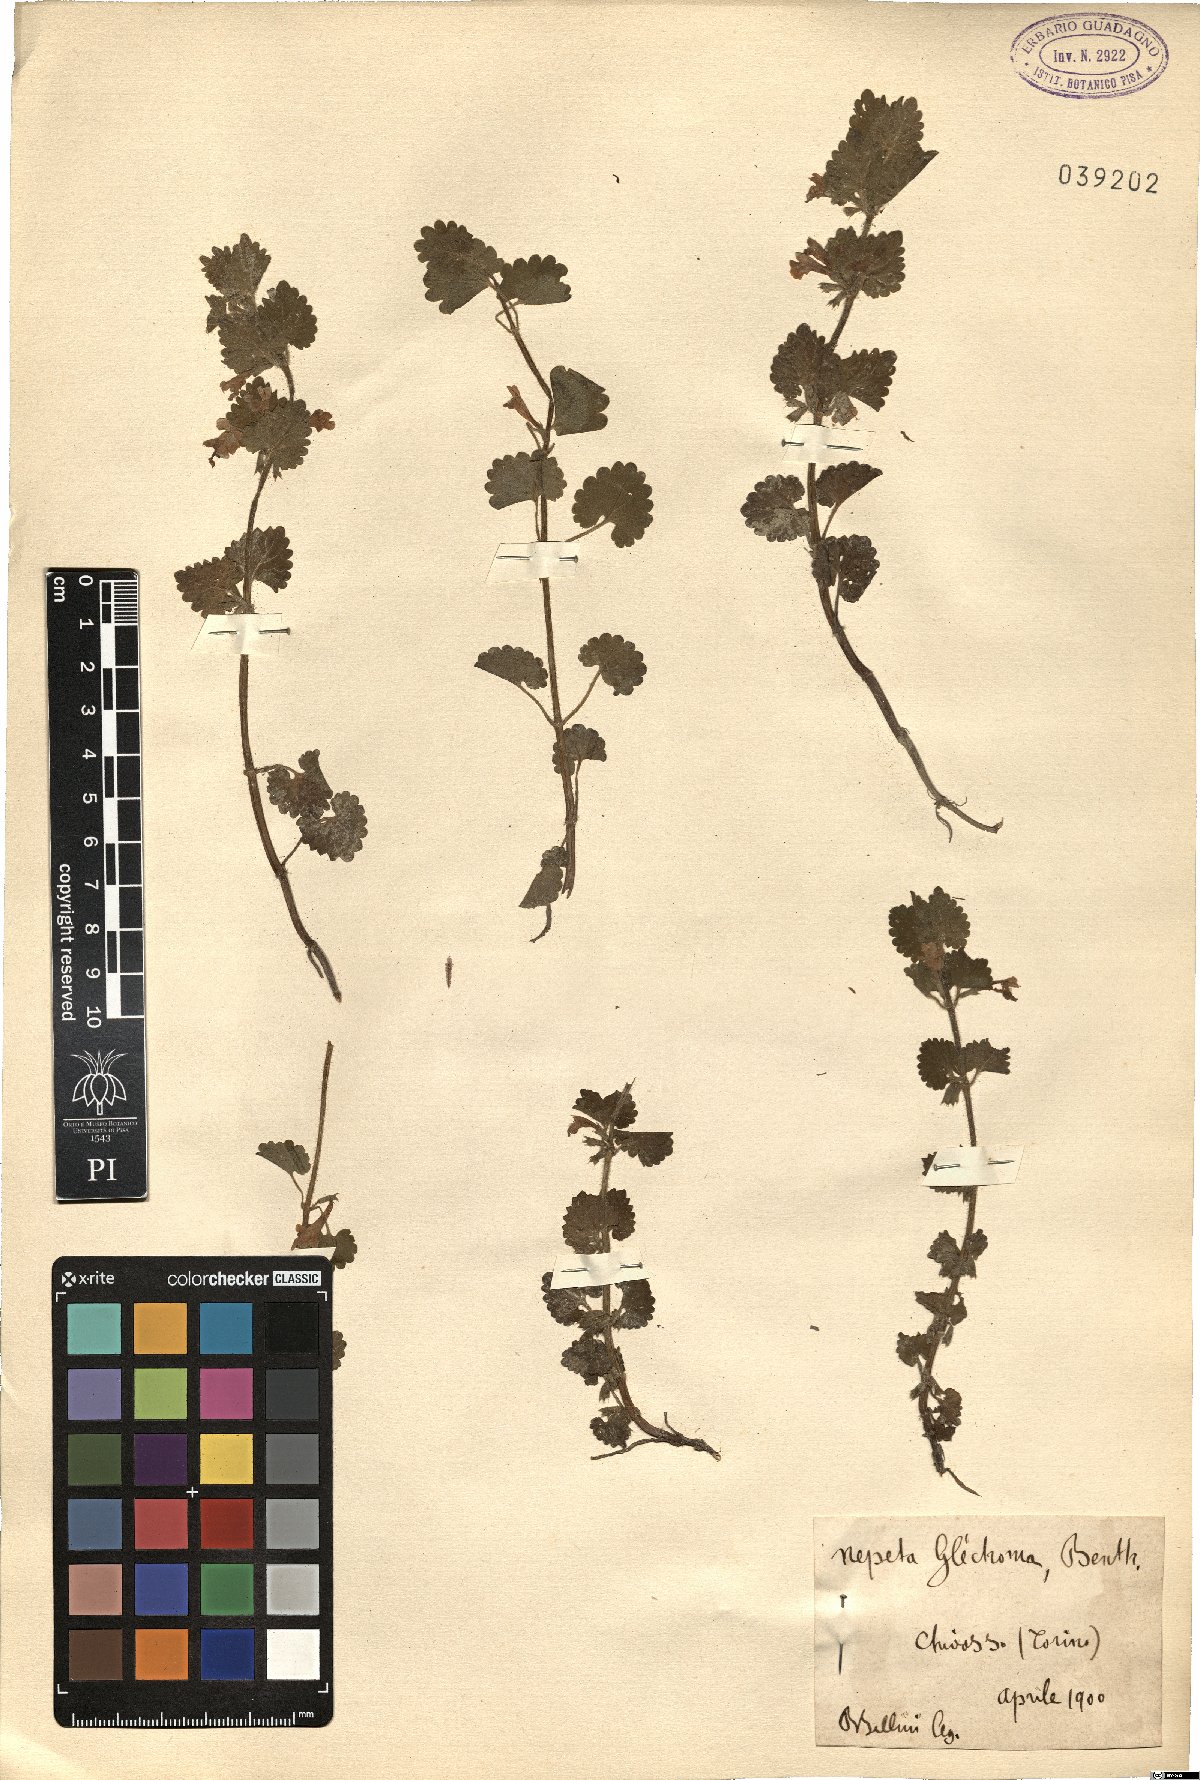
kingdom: Plantae
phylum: Tracheophyta
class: Magnoliopsida
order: Lamiales
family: Lamiaceae
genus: Glechoma
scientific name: Glechoma hederacea
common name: Ground ivy
